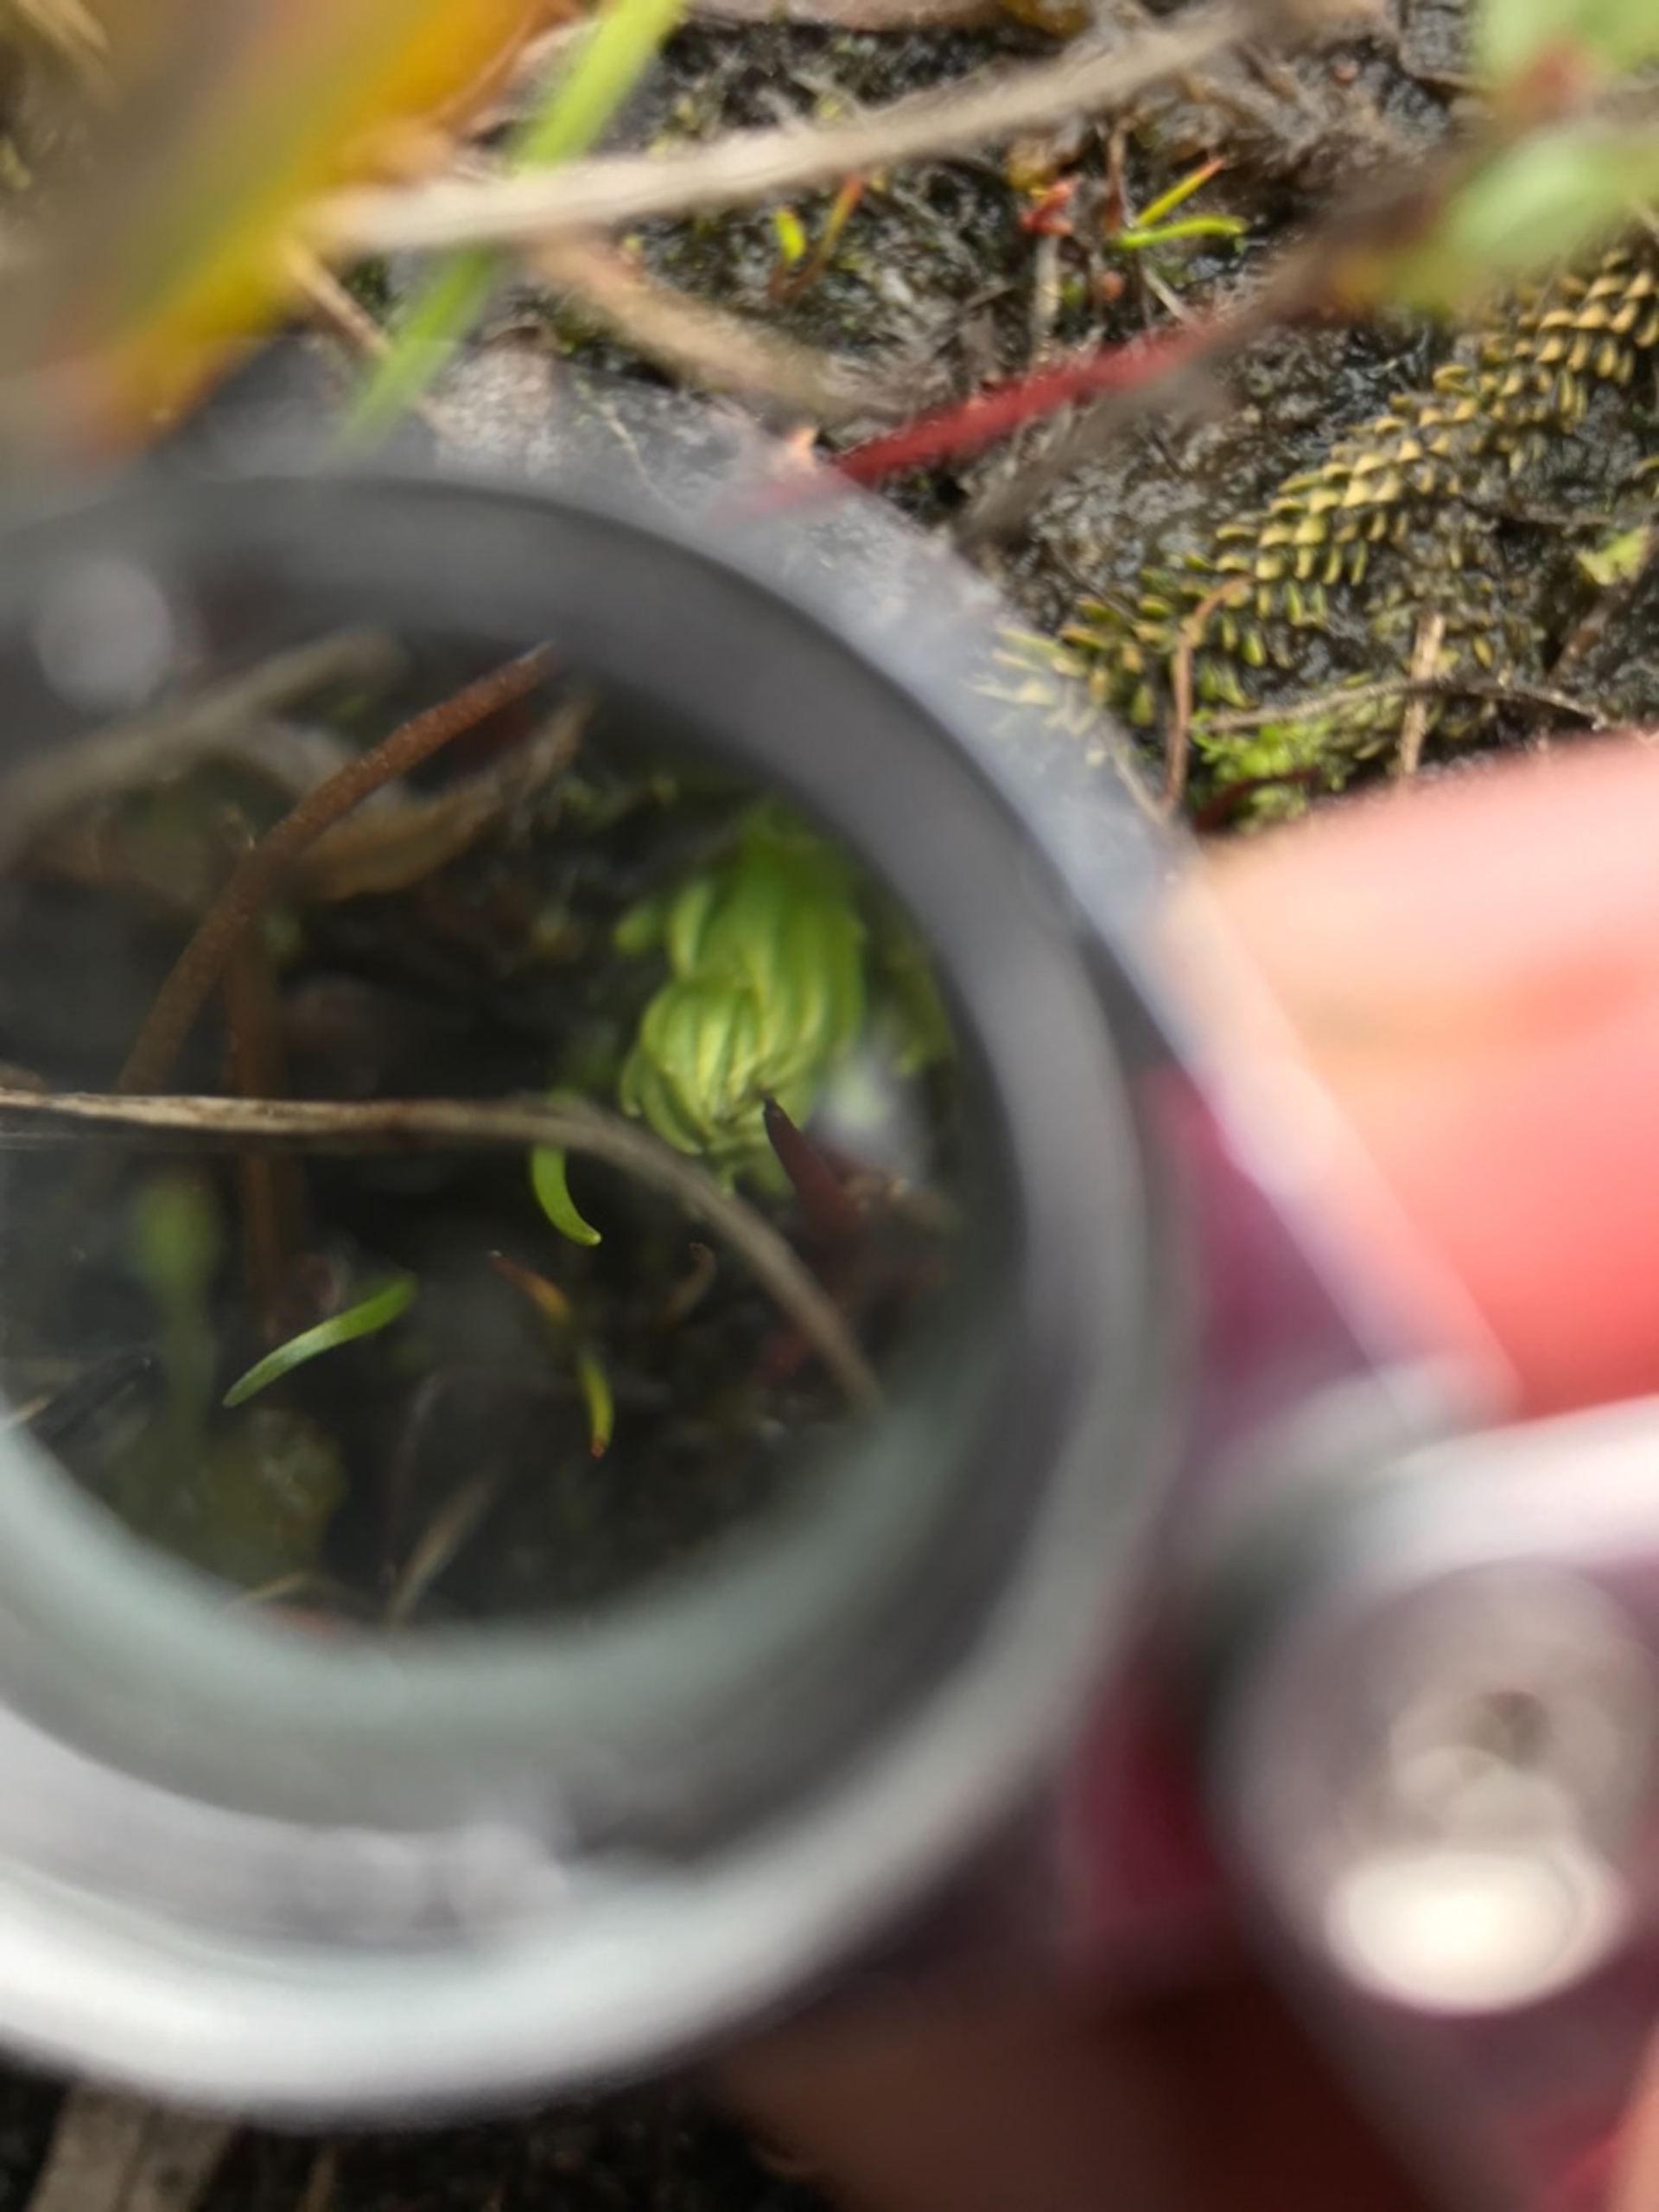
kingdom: Plantae
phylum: Tracheophyta
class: Lycopodiopsida
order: Lycopodiales
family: Lycopodiaceae
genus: Lycopodiella
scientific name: Lycopodiella inundata
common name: Liden ulvefod
